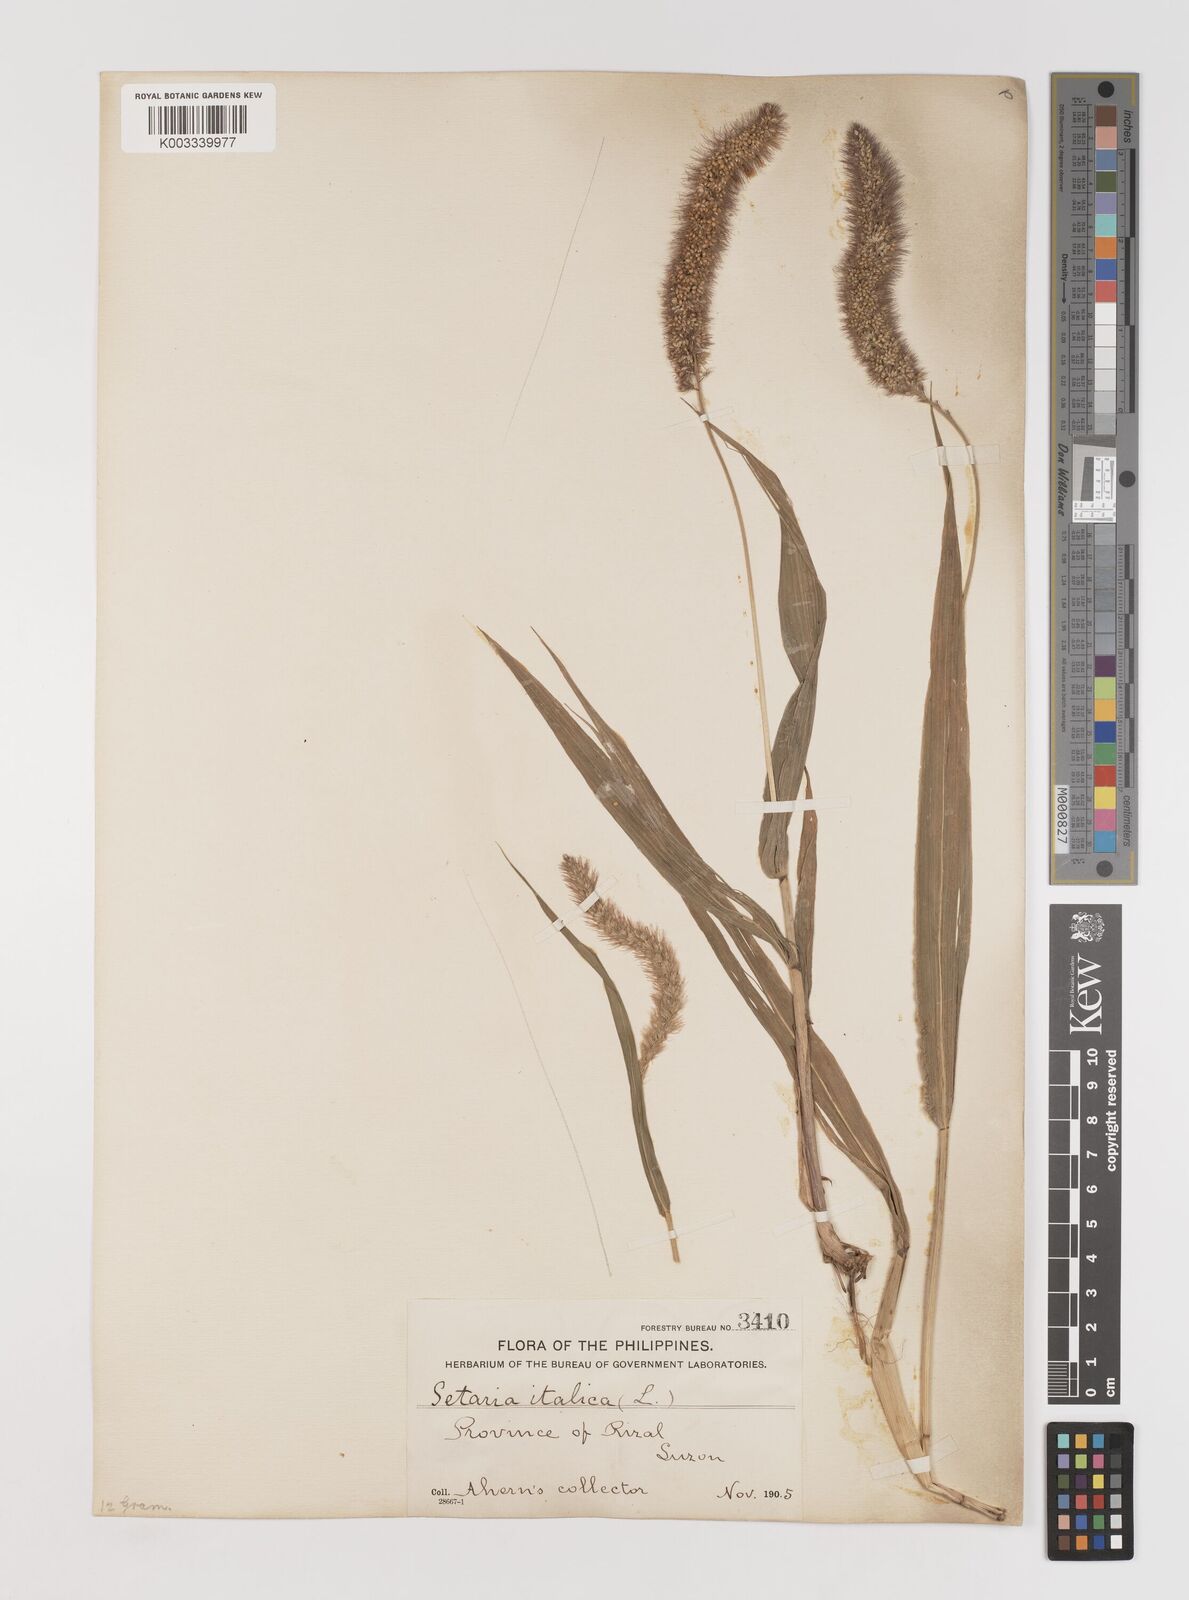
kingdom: Plantae
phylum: Tracheophyta
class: Liliopsida
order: Poales
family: Poaceae
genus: Setaria
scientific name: Setaria italica
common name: Foxtail bristle-grass
